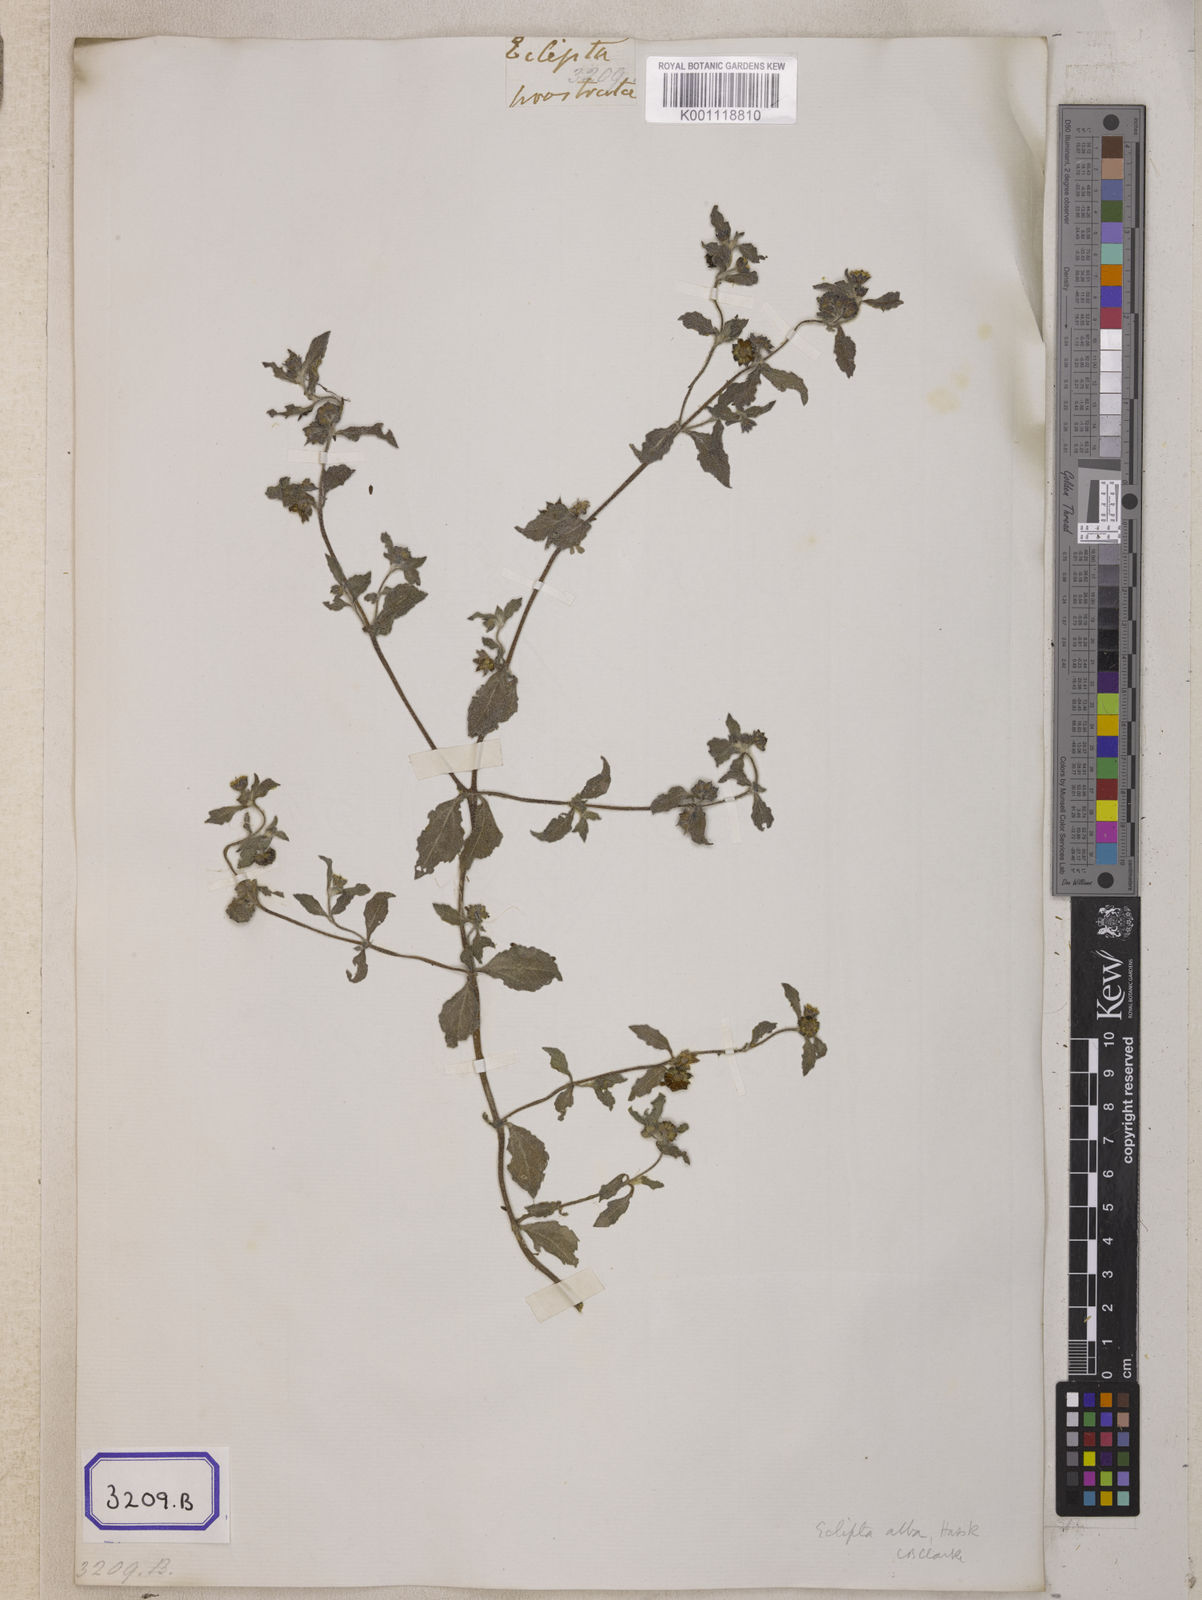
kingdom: Plantae
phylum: Tracheophyta
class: Magnoliopsida
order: Asterales
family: Asteraceae
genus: Eclipta
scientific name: Eclipta prostrata
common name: False daisy
